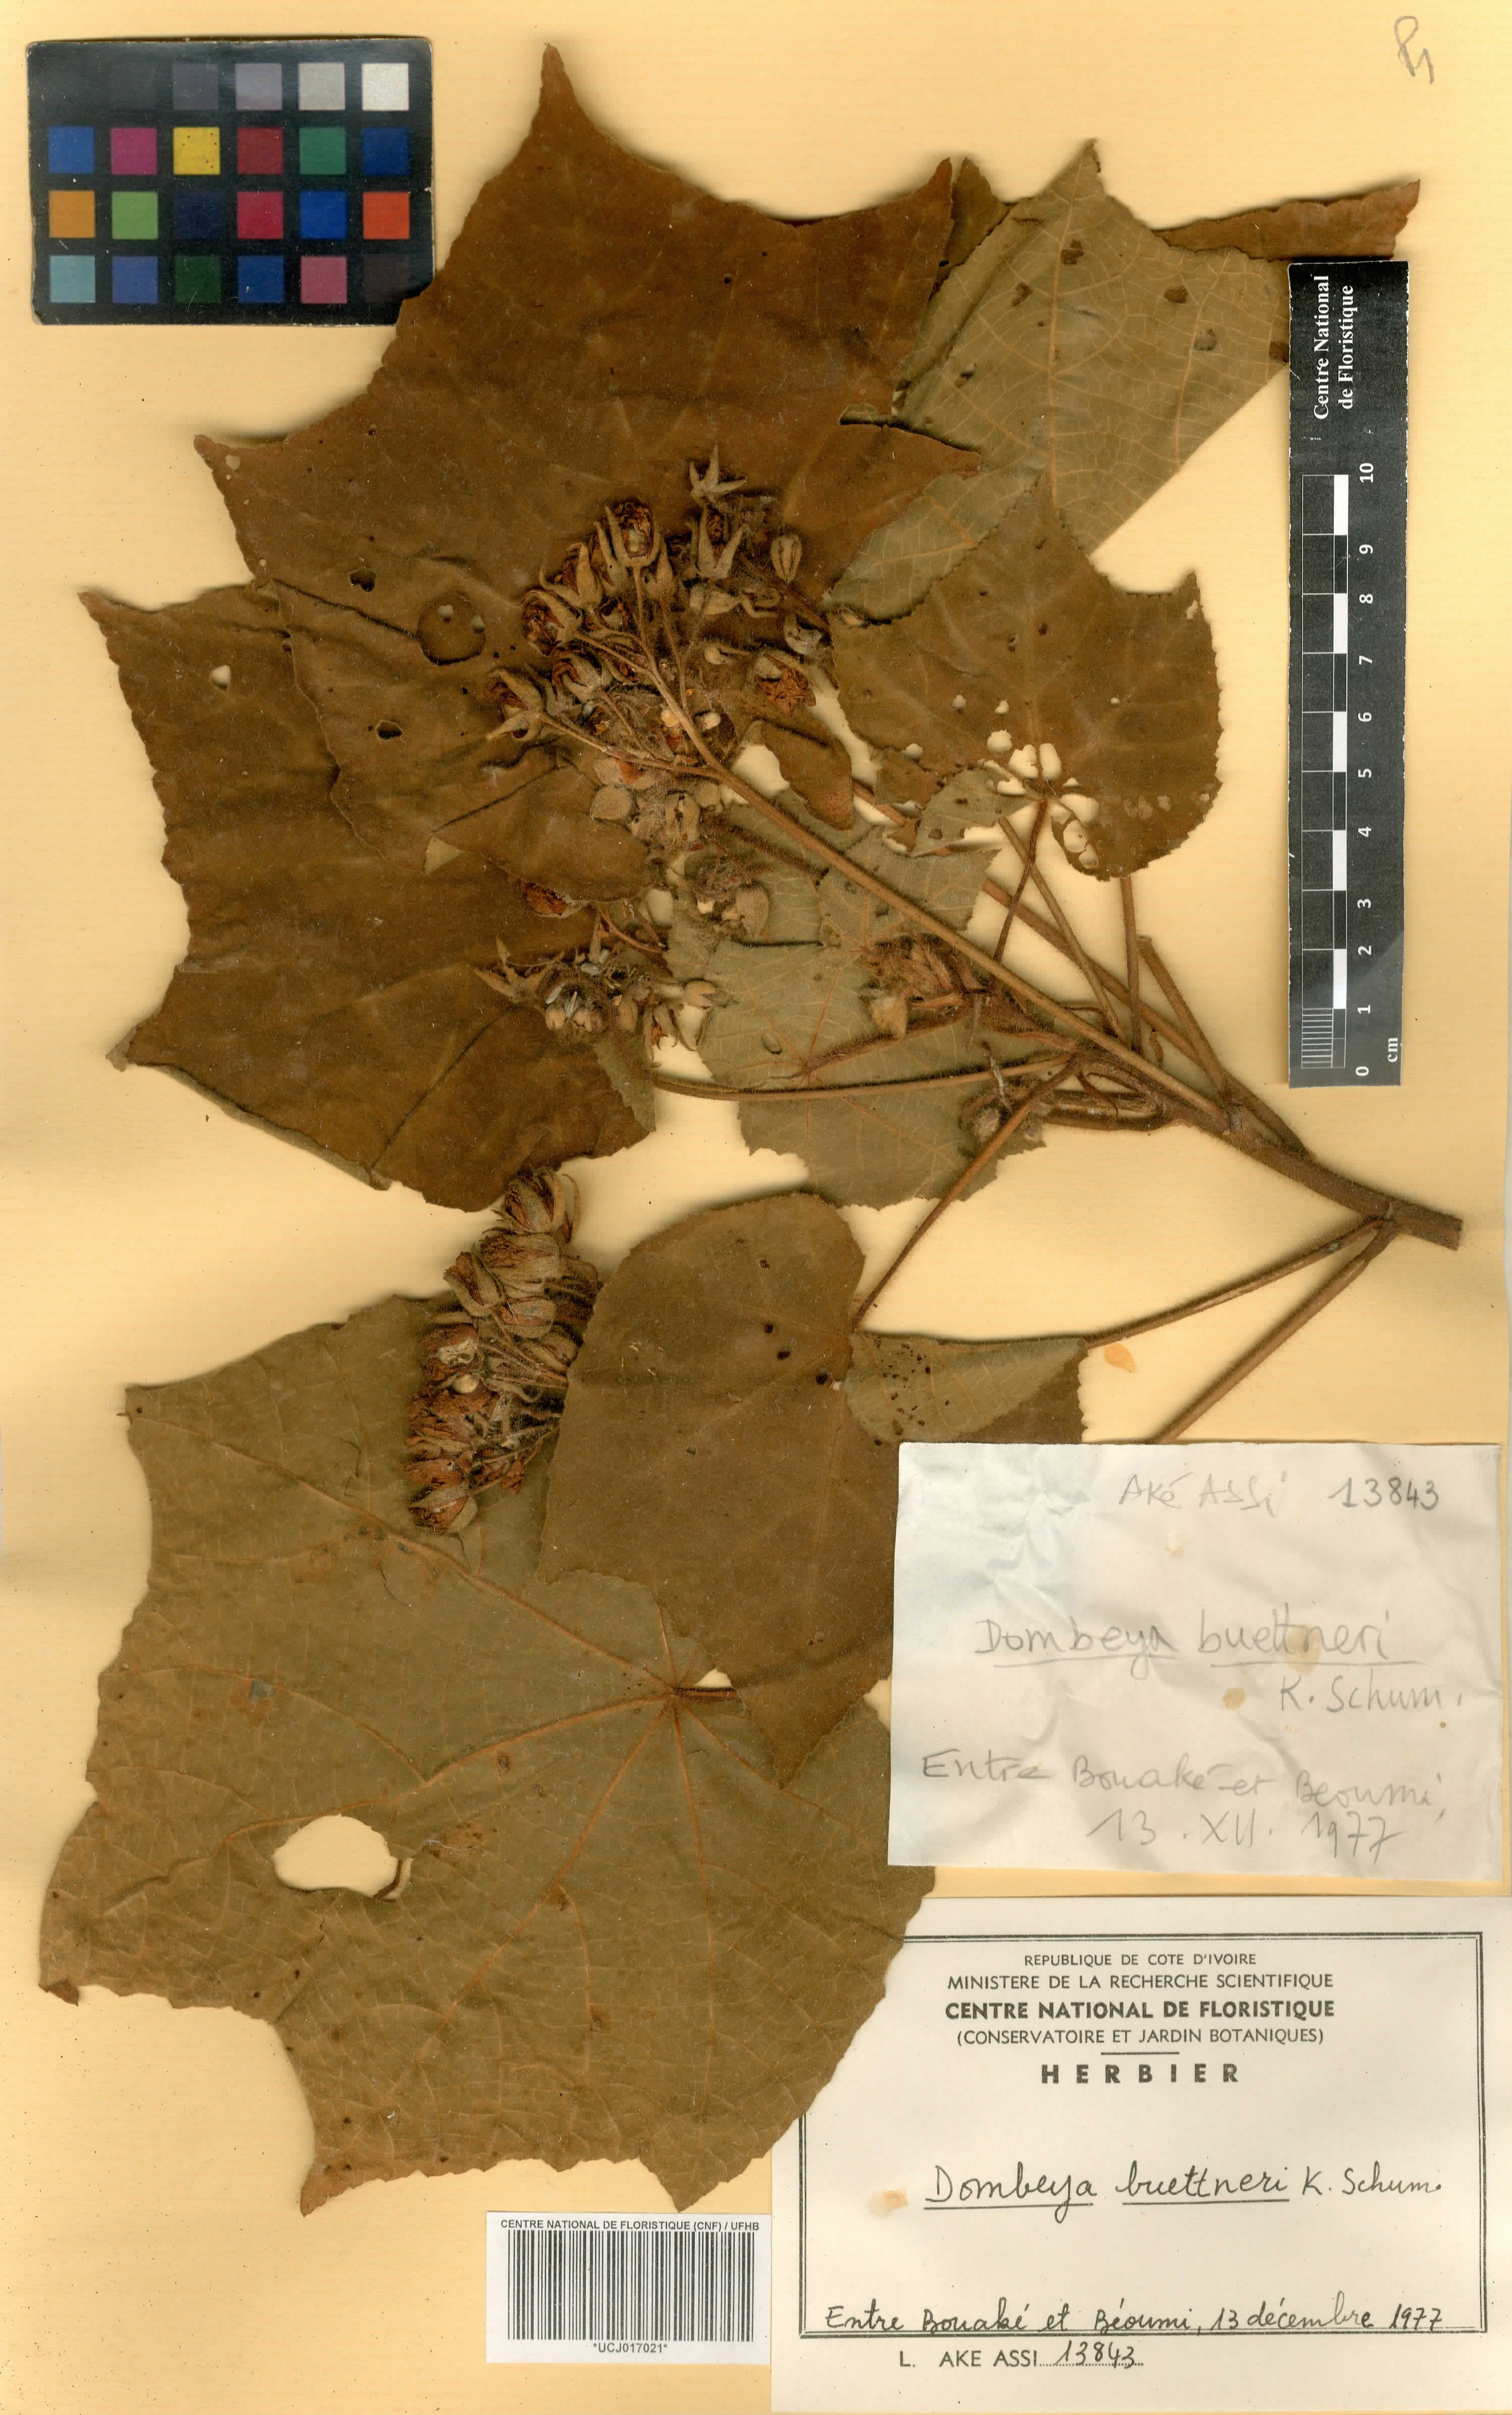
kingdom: Plantae
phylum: Tracheophyta
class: Magnoliopsida
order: Malvales
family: Malvaceae
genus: Dombeya
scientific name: Dombeya buettneri
